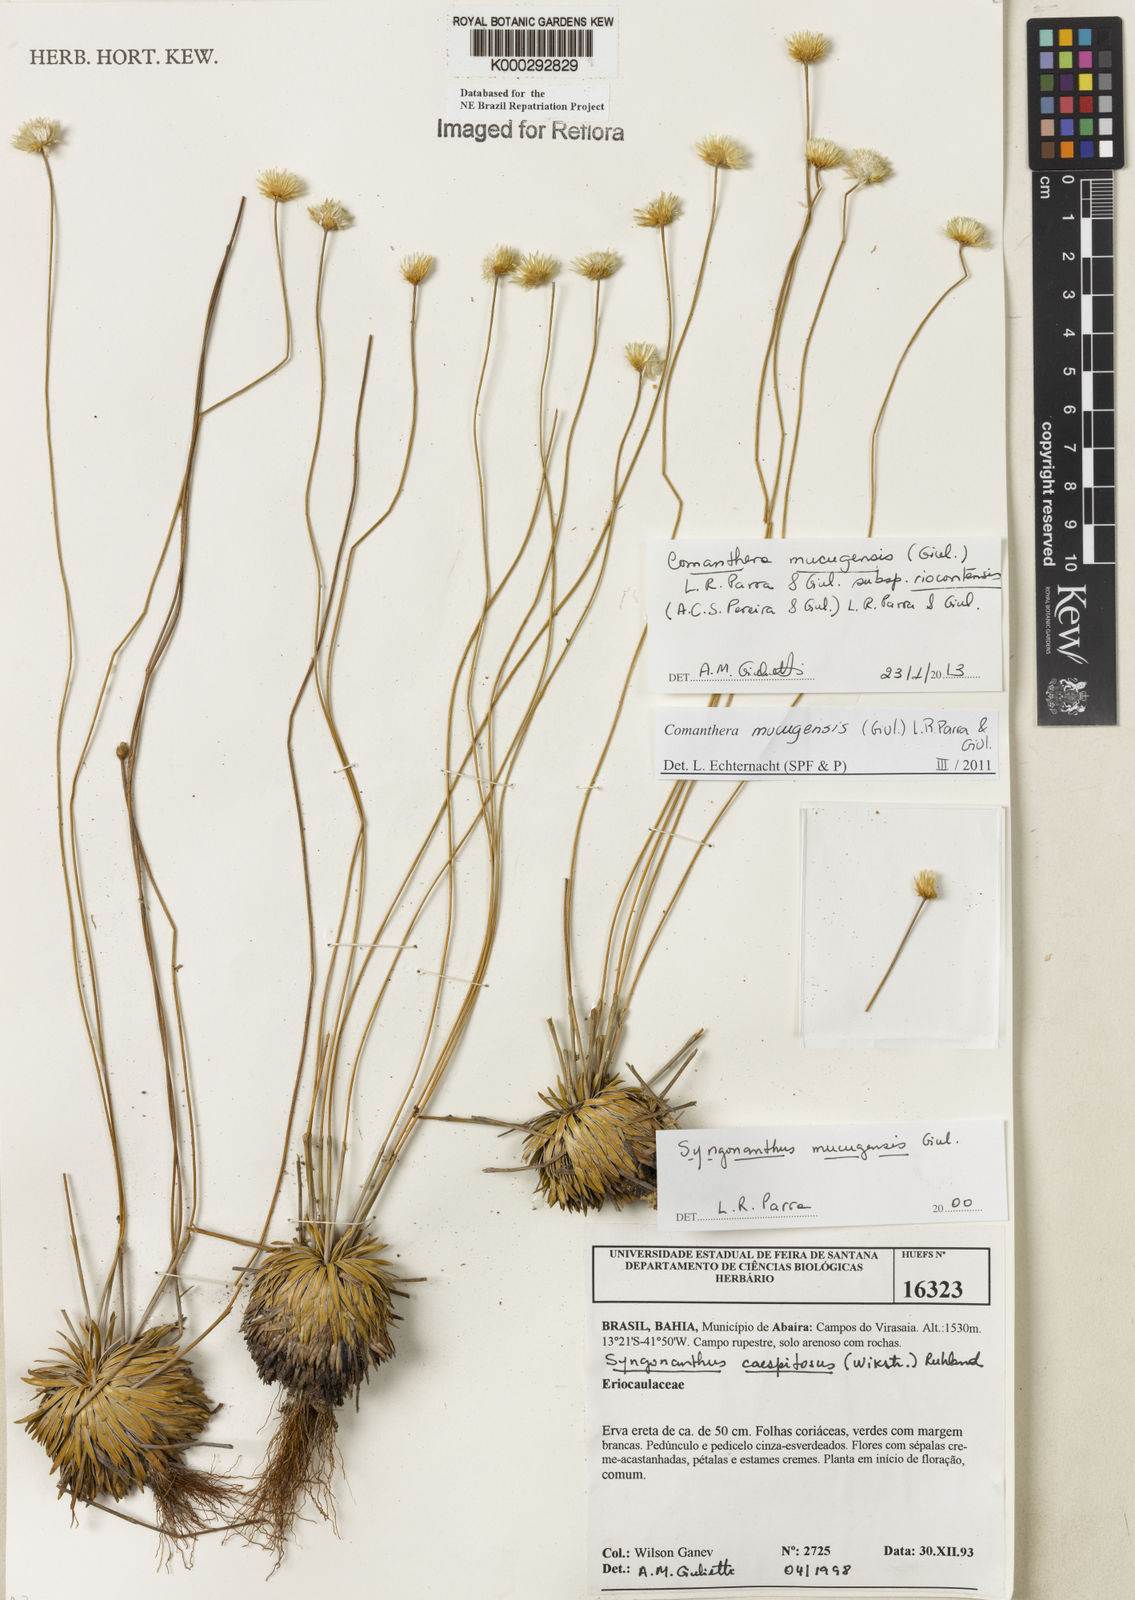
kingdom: Plantae
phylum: Tracheophyta
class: Liliopsida
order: Poales
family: Eriocaulaceae
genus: Comanthera
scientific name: Comanthera mucugensis
